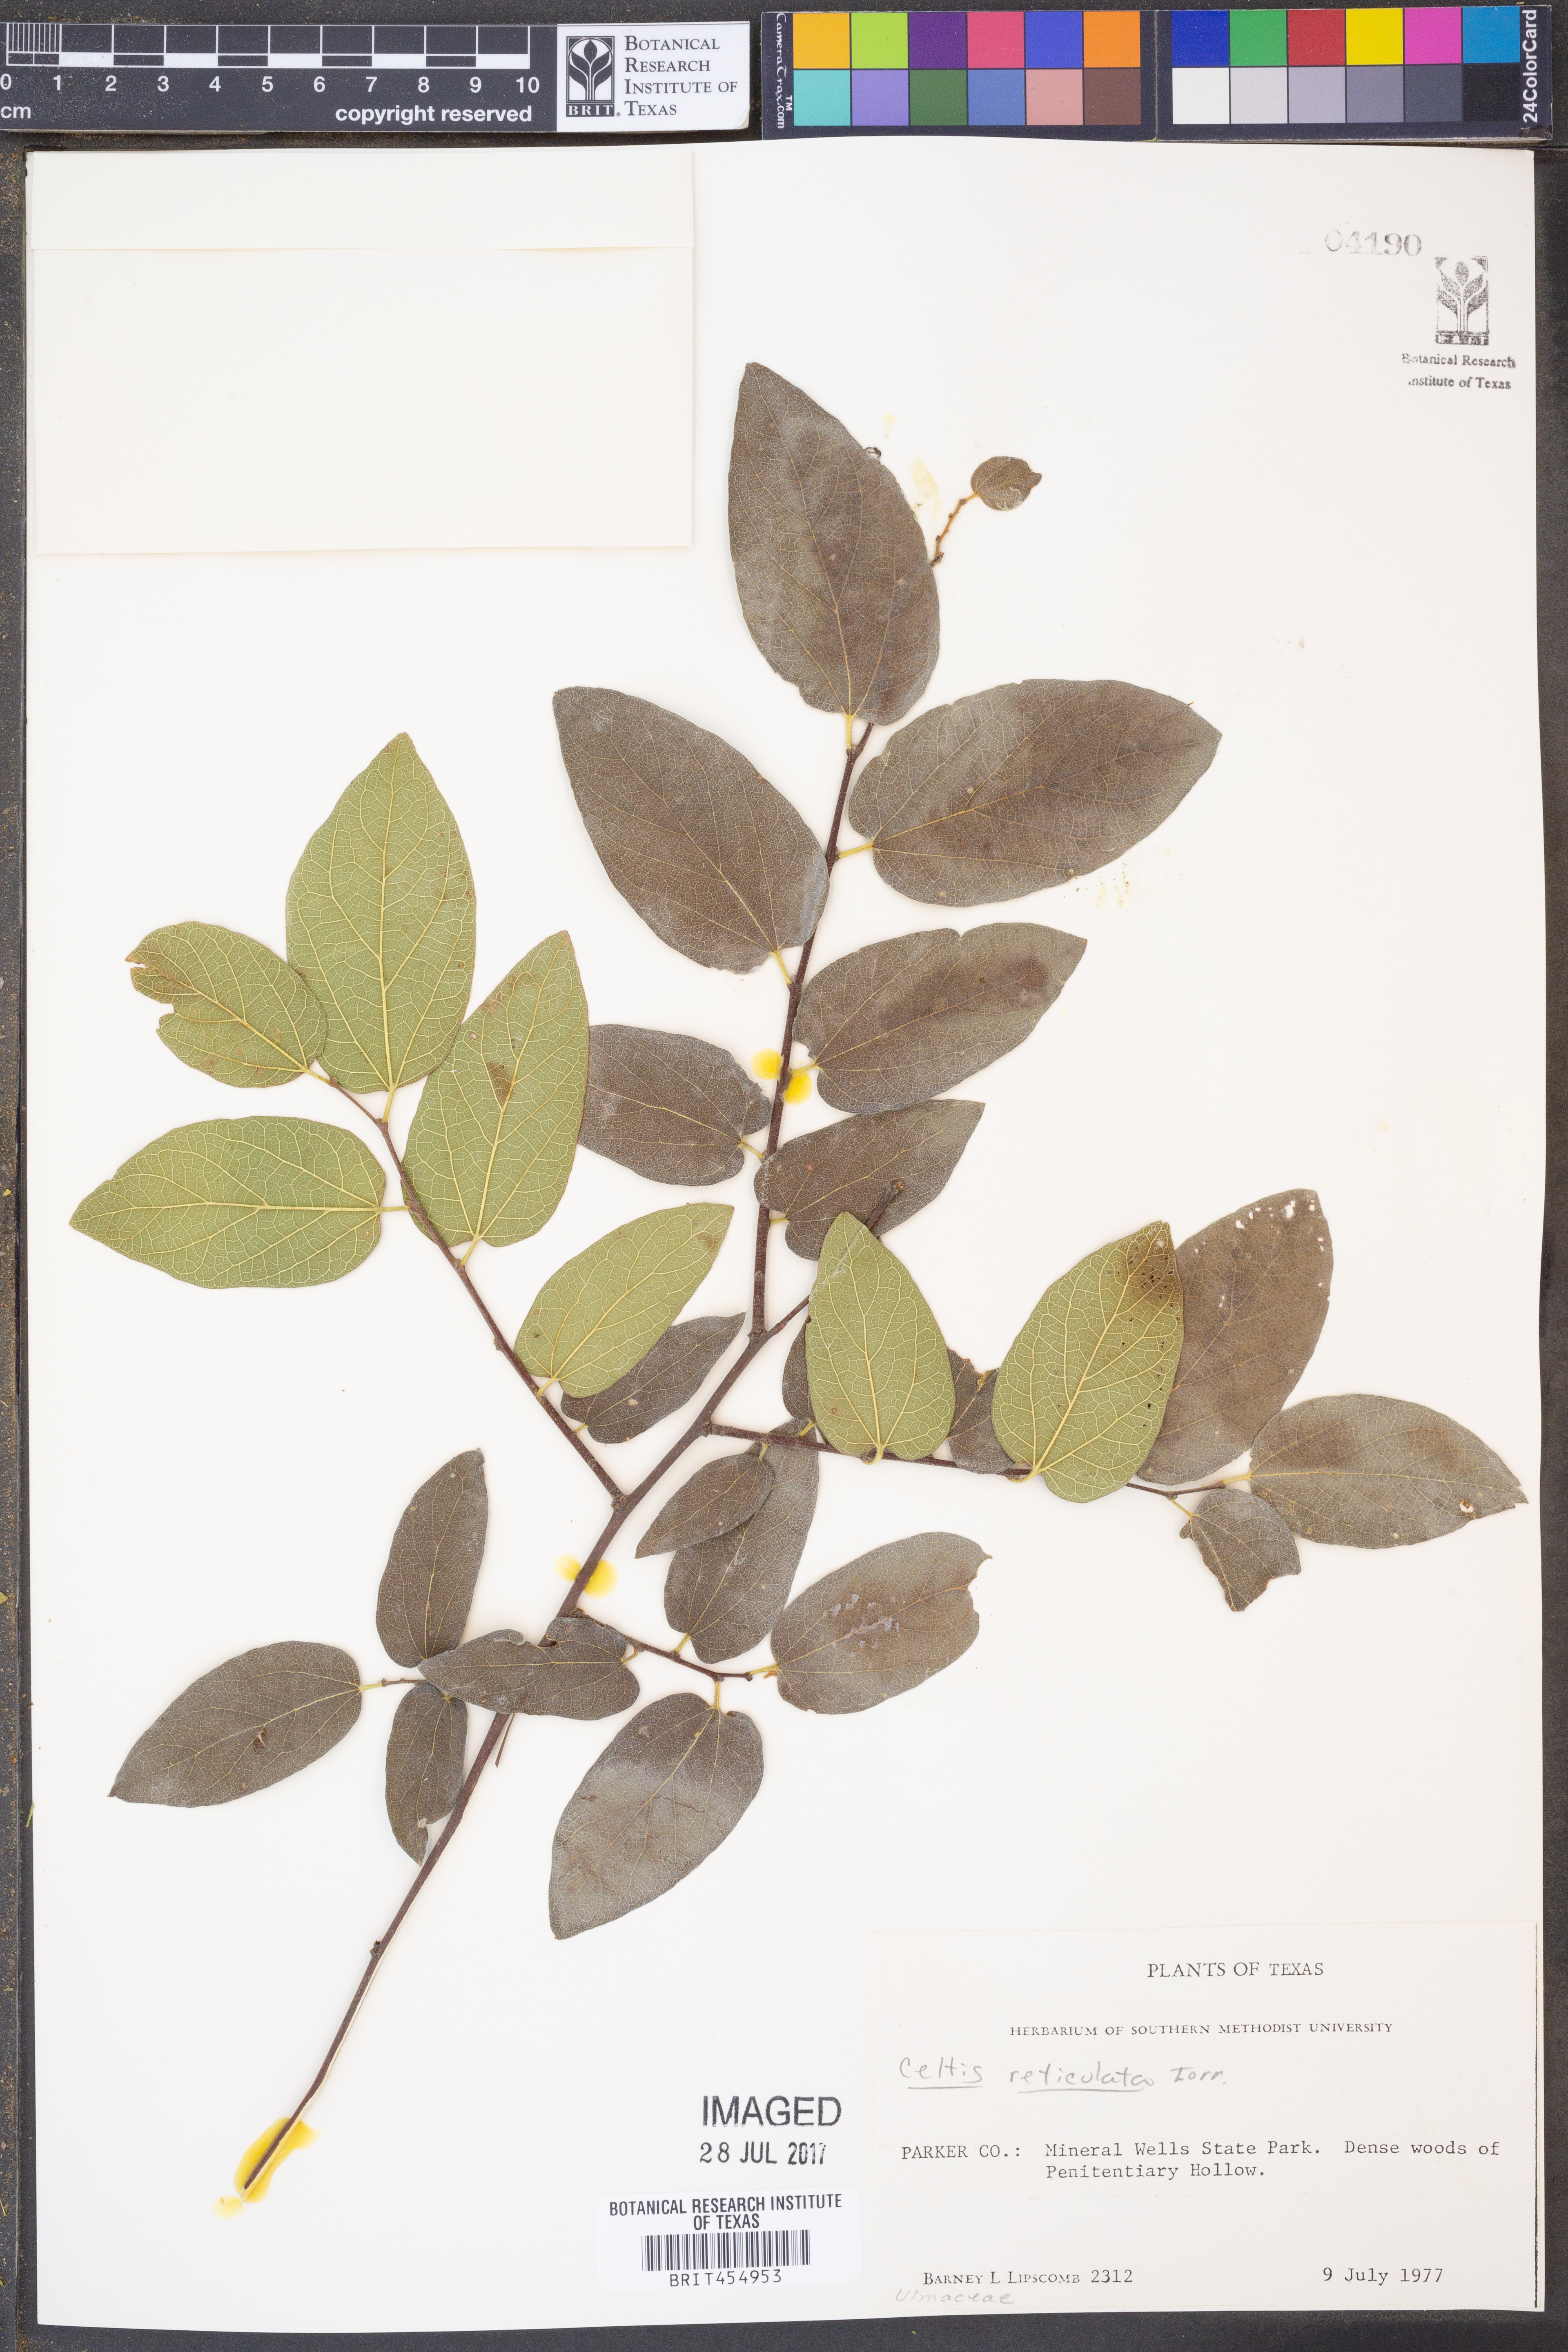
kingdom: Plantae
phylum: Tracheophyta
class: Magnoliopsida
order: Rosales
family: Cannabaceae
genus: Celtis
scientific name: Celtis reticulata
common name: Netleaf hackberry
